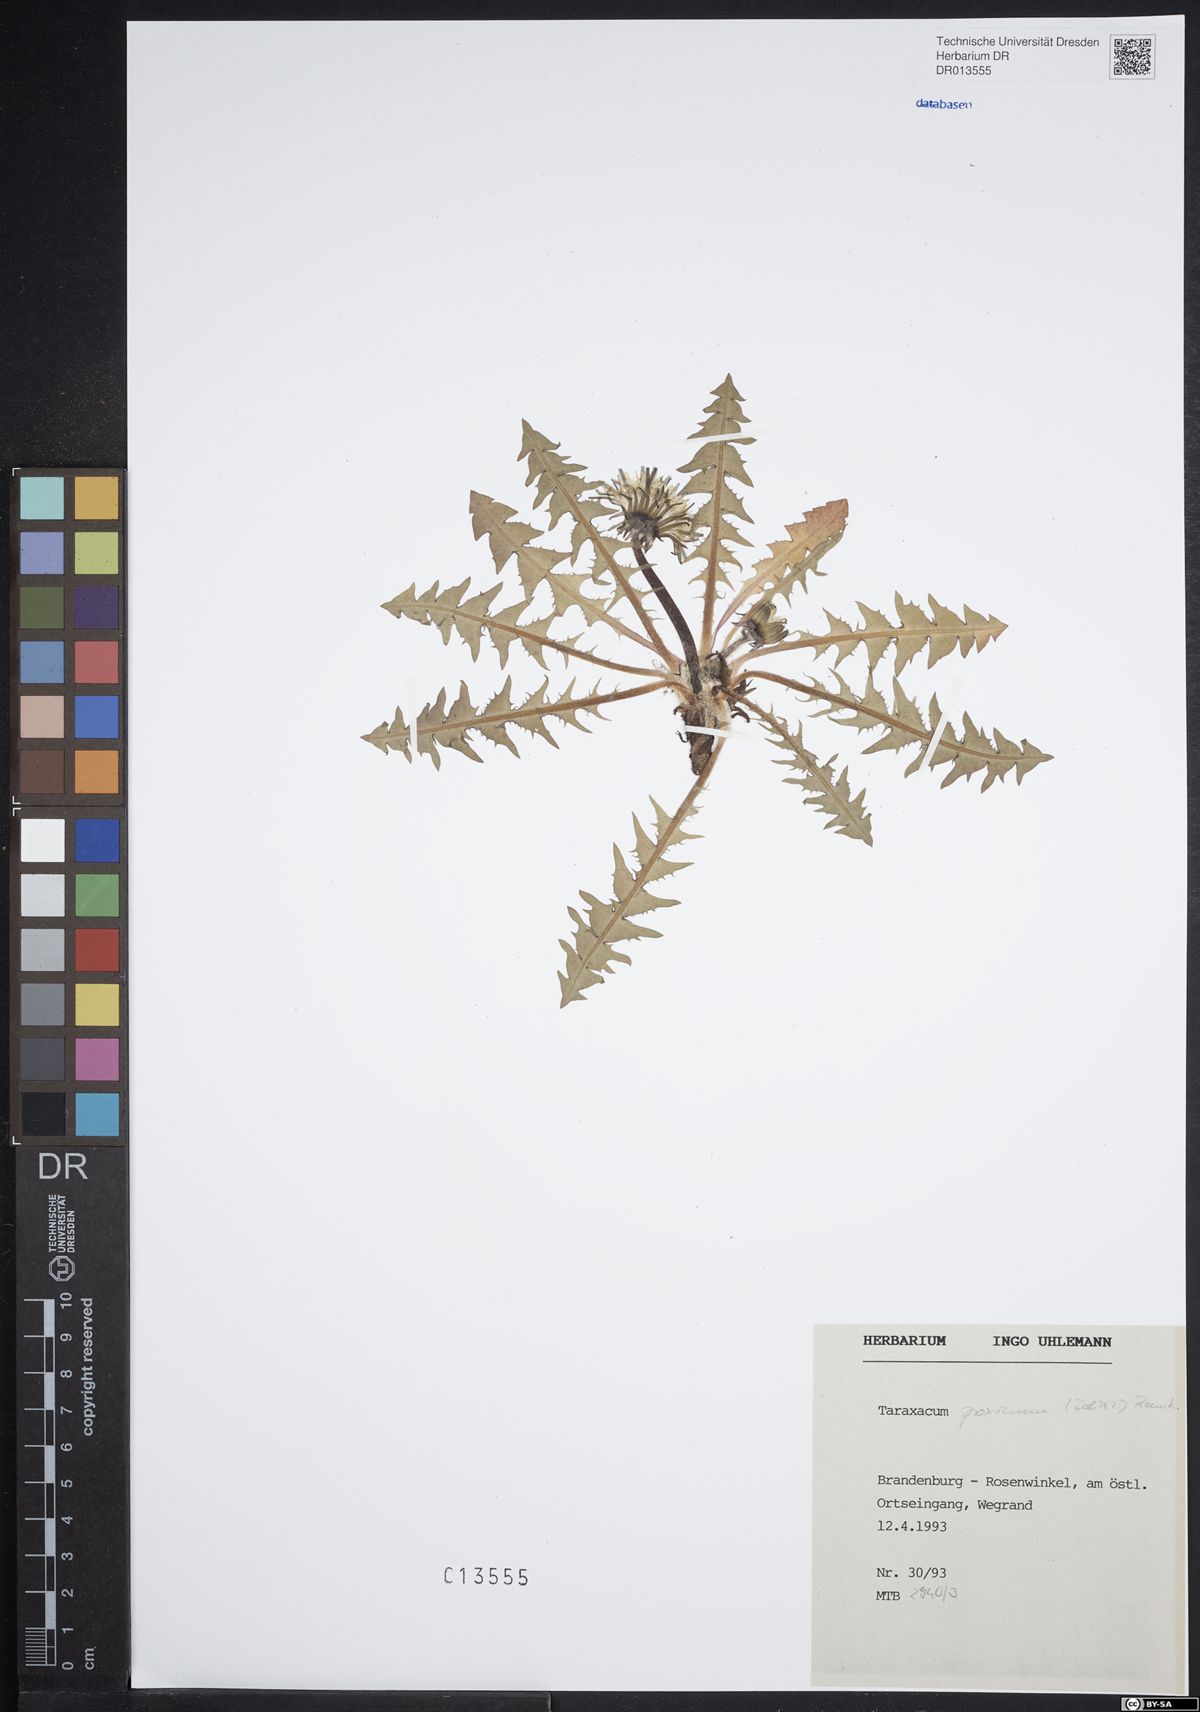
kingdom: Plantae
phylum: Tracheophyta
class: Magnoliopsida
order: Asterales
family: Asteraceae
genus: Taraxacum
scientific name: Taraxacum proximum
